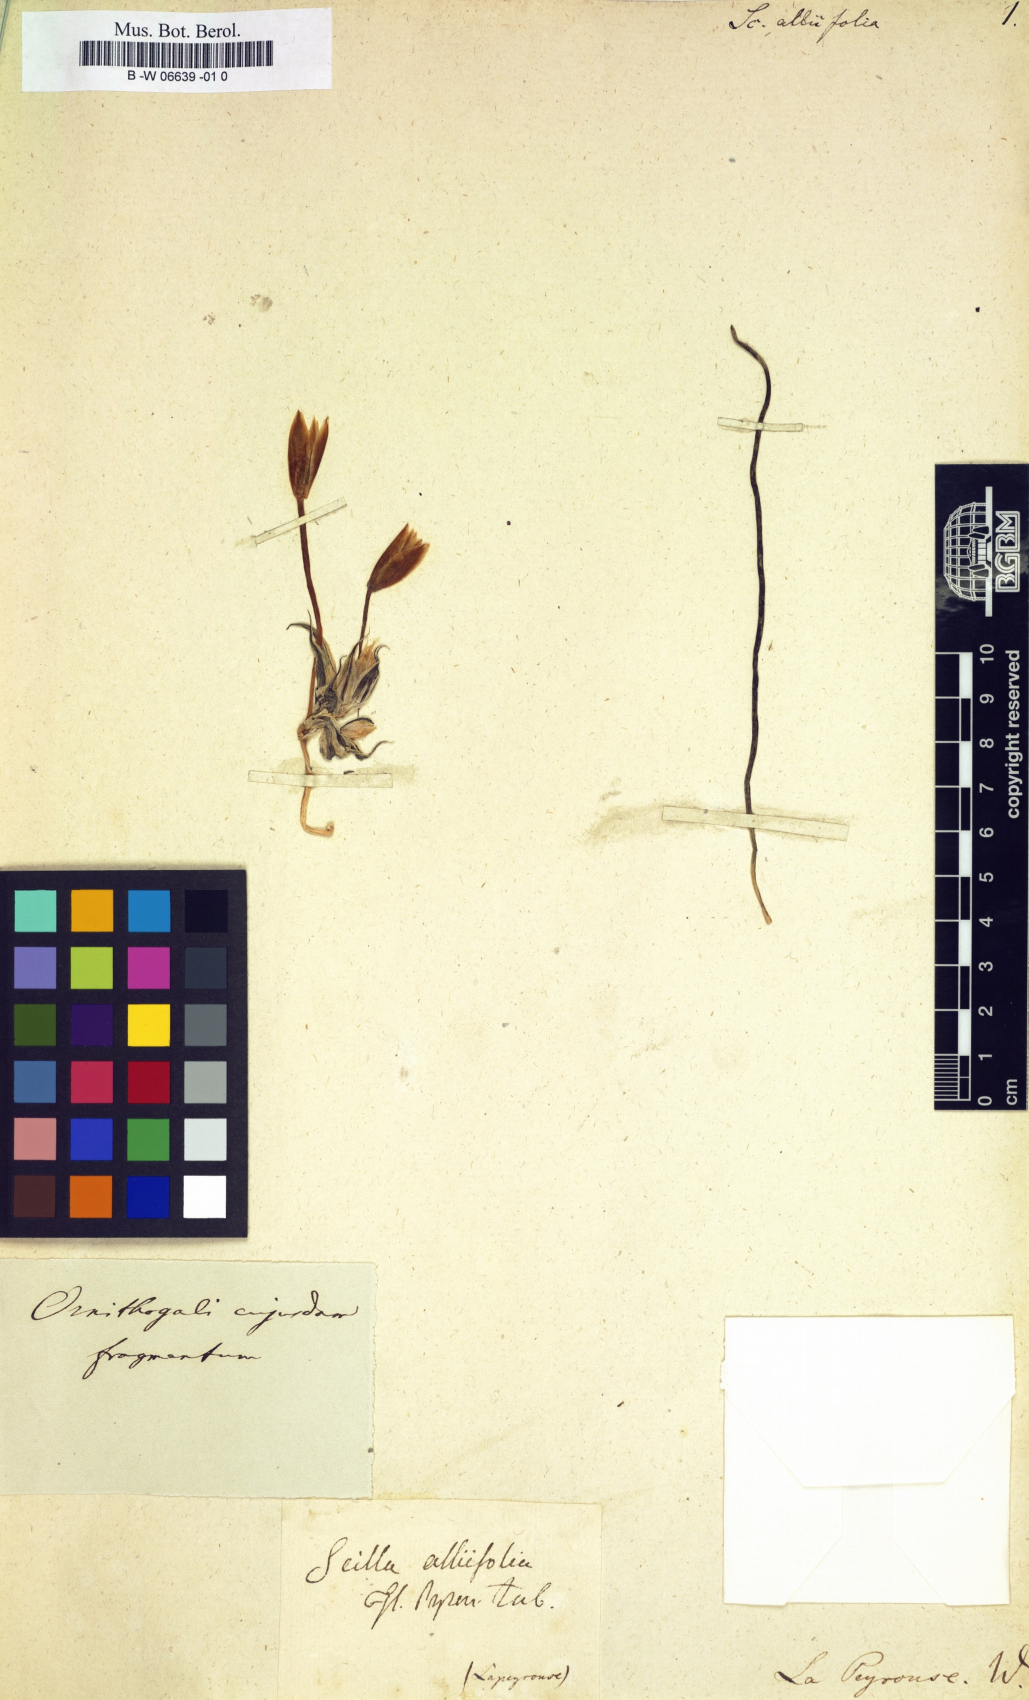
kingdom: Plantae
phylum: Tracheophyta
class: Liliopsida
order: Asparagales
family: Asparagaceae
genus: Scilla
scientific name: Scilla verna
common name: Spring squill
